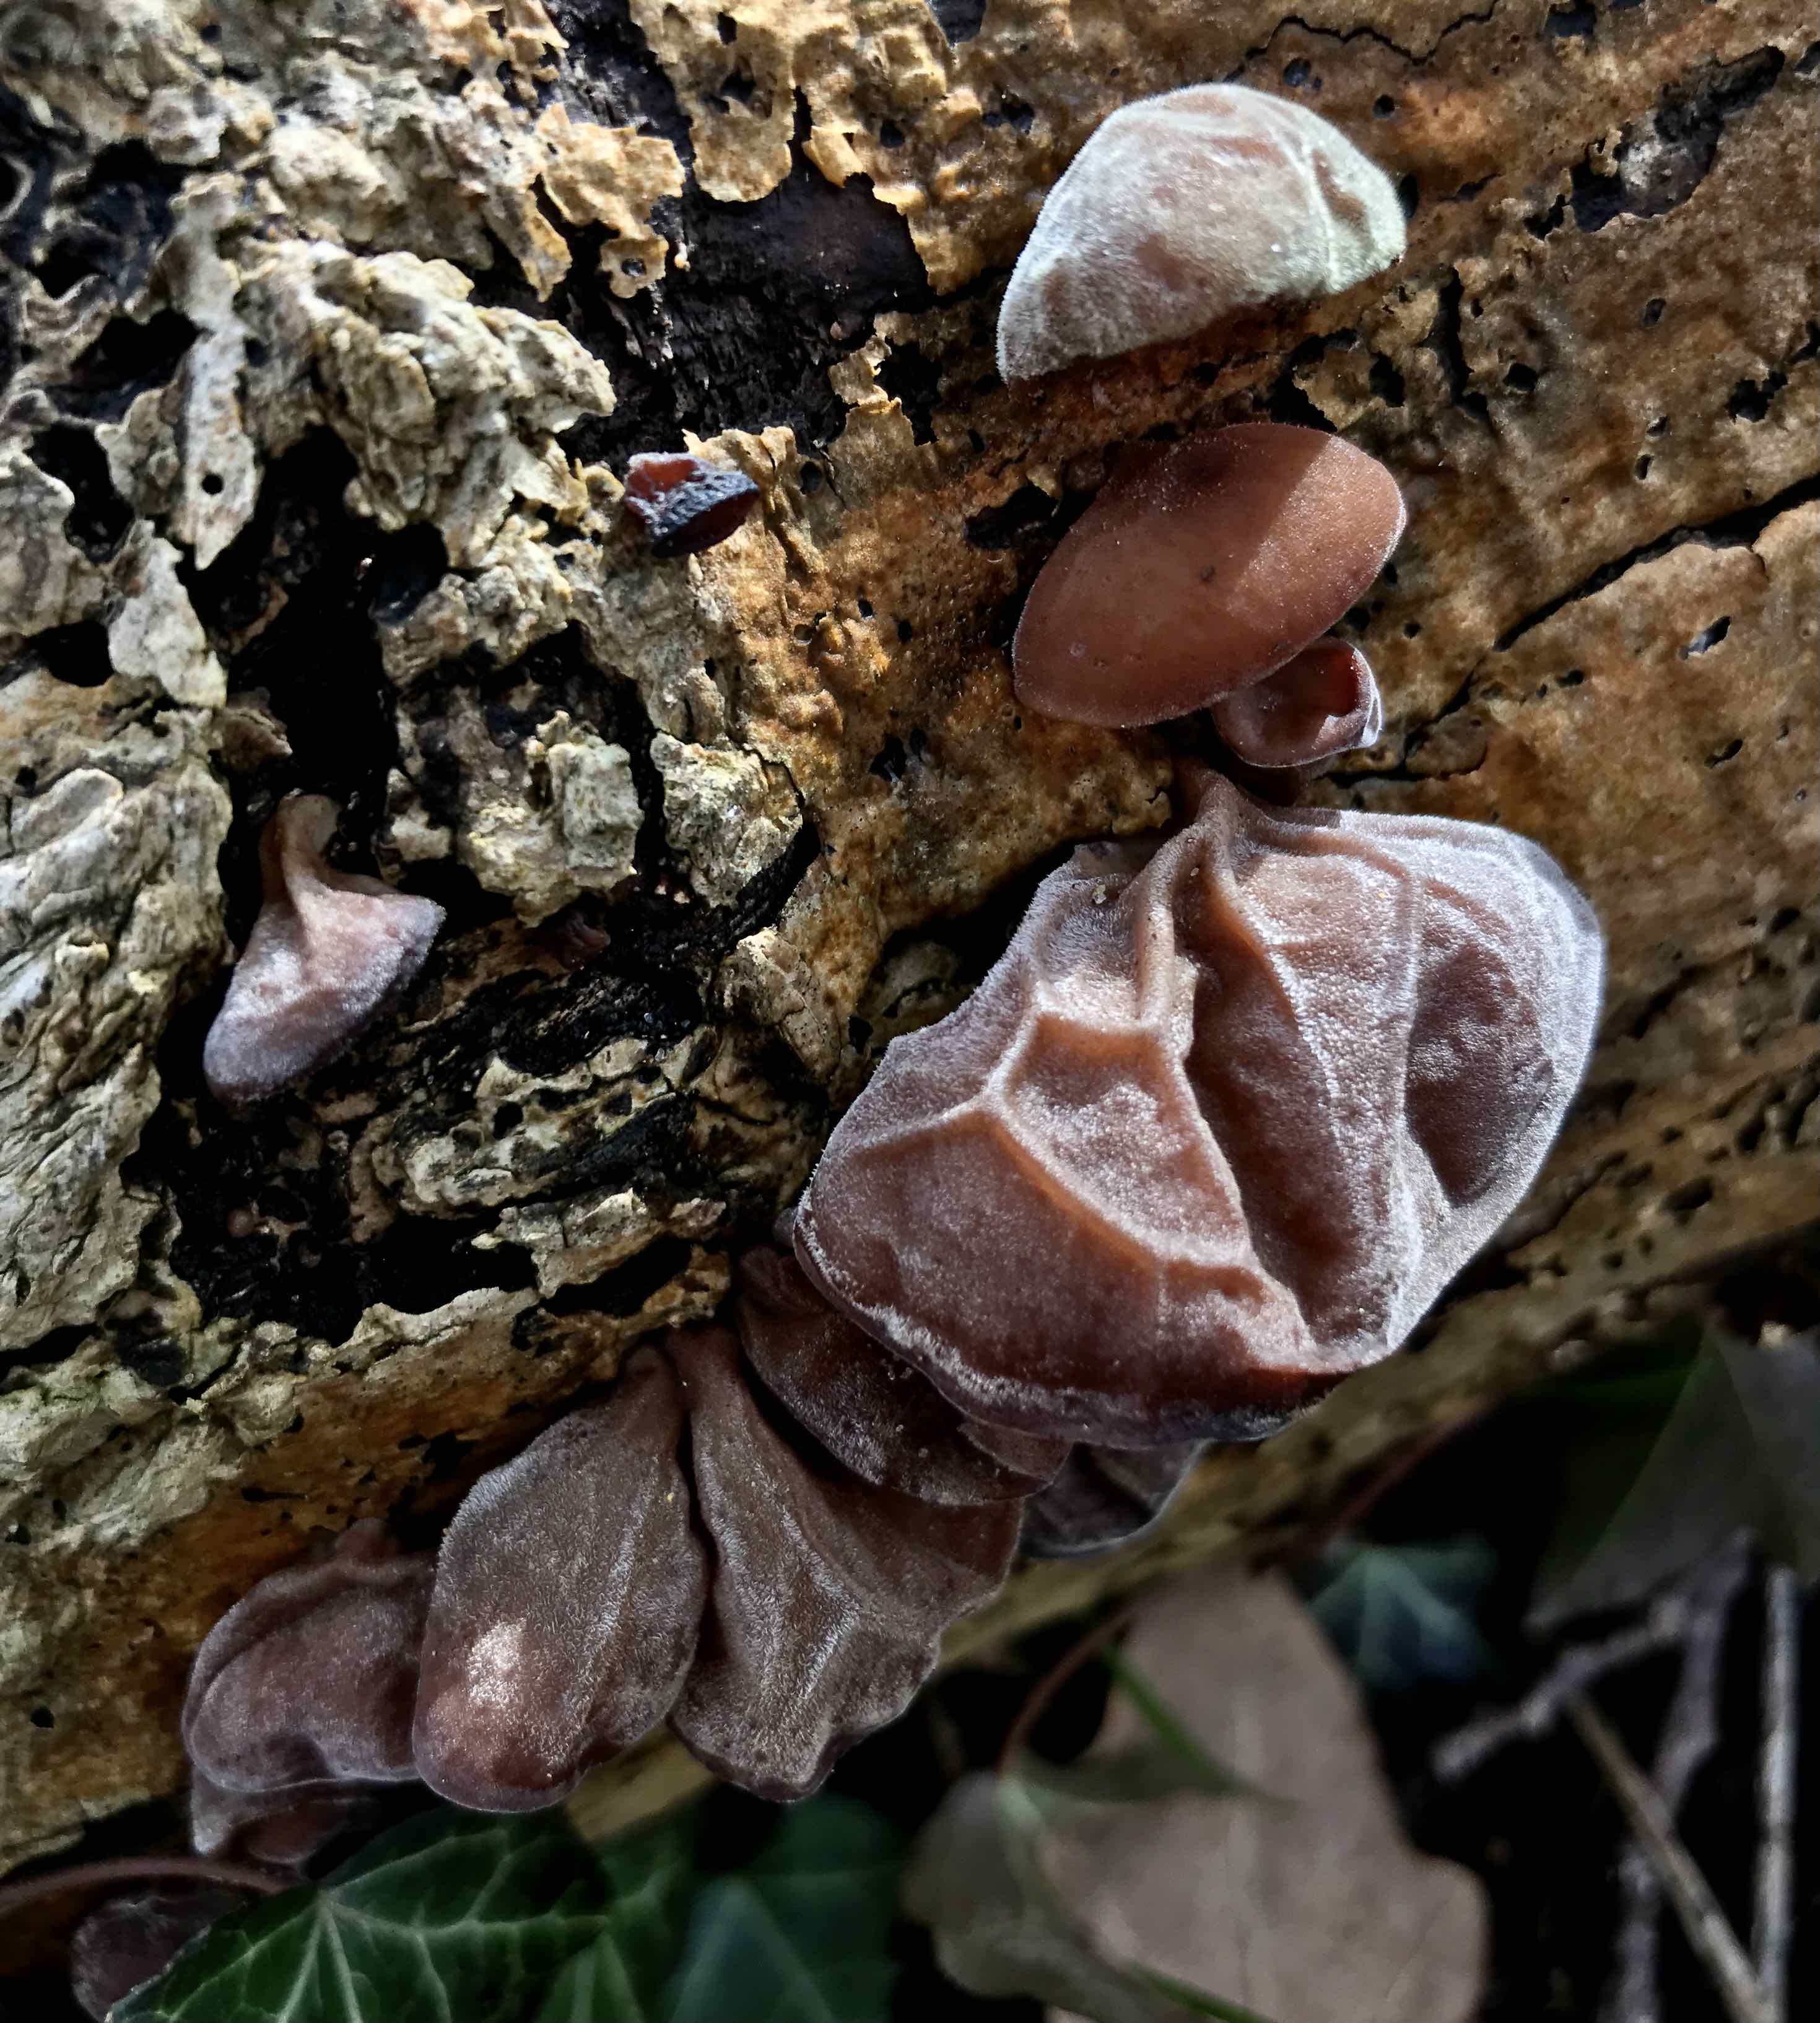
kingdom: Fungi
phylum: Basidiomycota
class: Agaricomycetes
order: Auriculariales
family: Auriculariaceae
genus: Auricularia
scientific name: Auricularia auricula-judae
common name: almindelig judasøre
